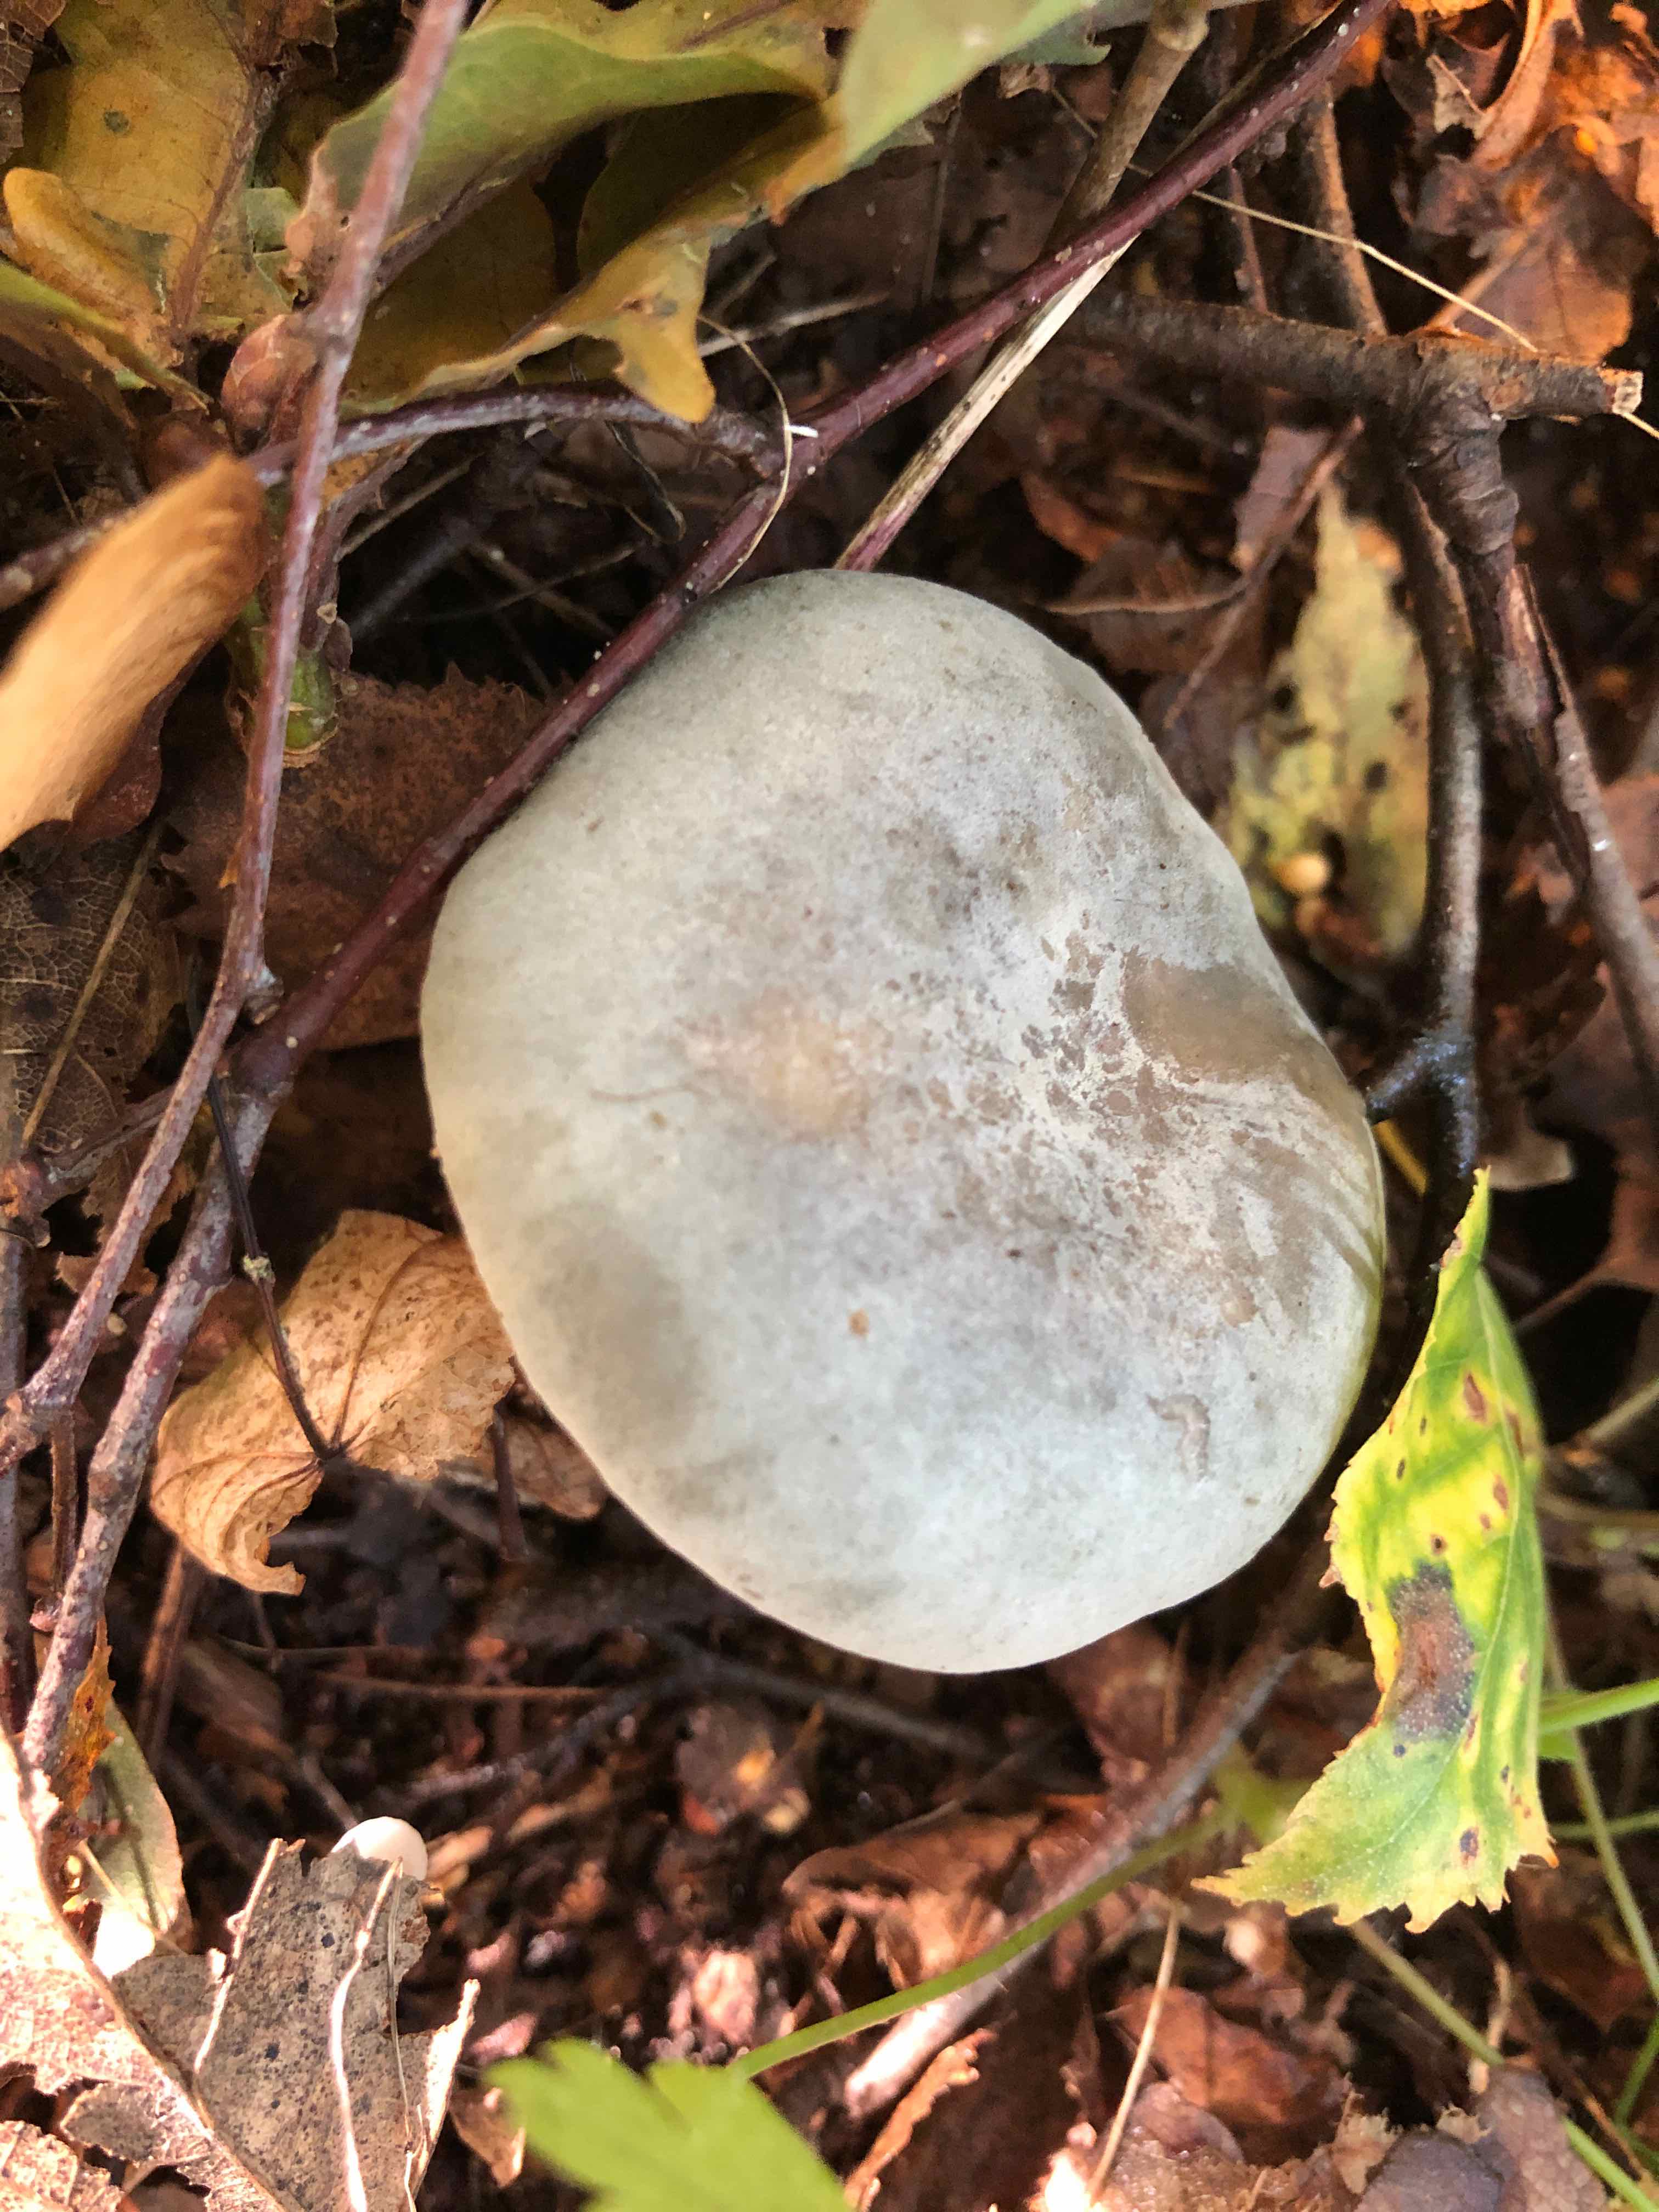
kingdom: Fungi
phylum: Basidiomycota
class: Agaricomycetes
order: Russulales
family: Russulaceae
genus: Russula
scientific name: Russula parazurea
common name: blågrå skørhat
